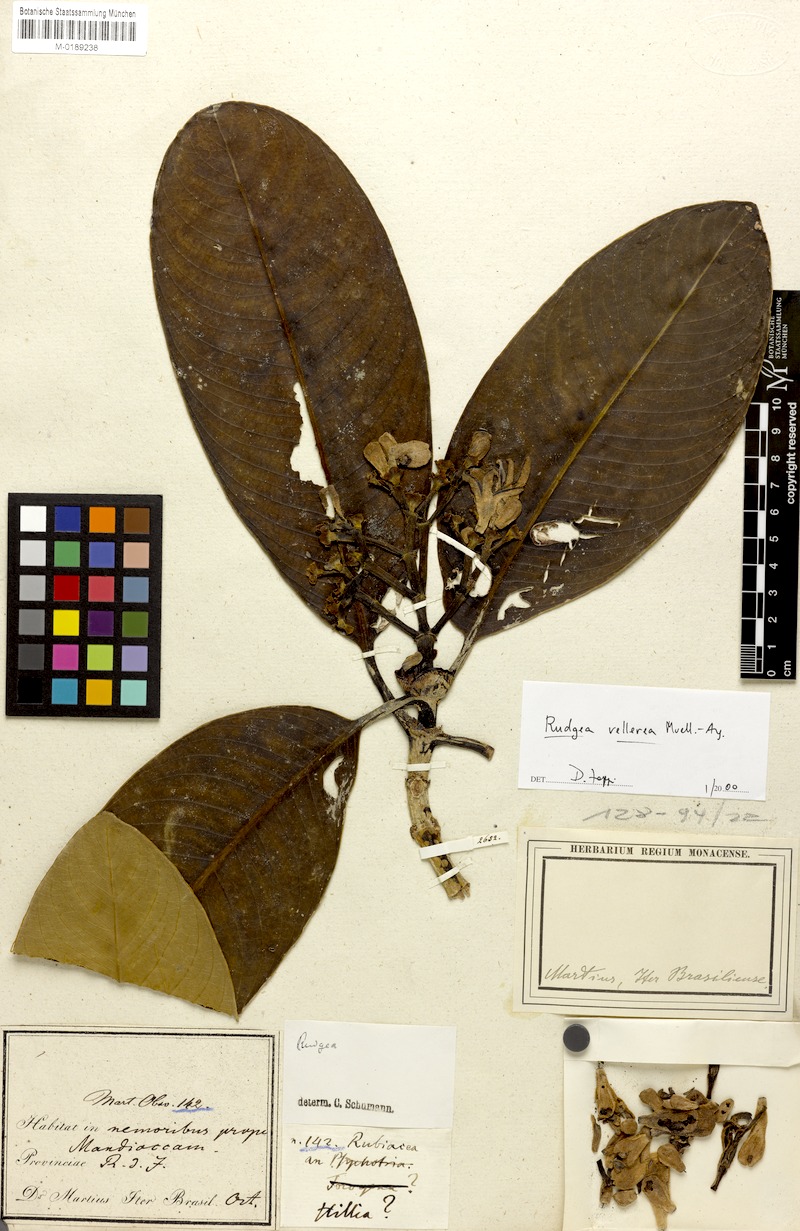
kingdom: Plantae
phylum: Tracheophyta
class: Magnoliopsida
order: Gentianales
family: Rubiaceae
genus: Rudgea
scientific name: Rudgea vellerea
